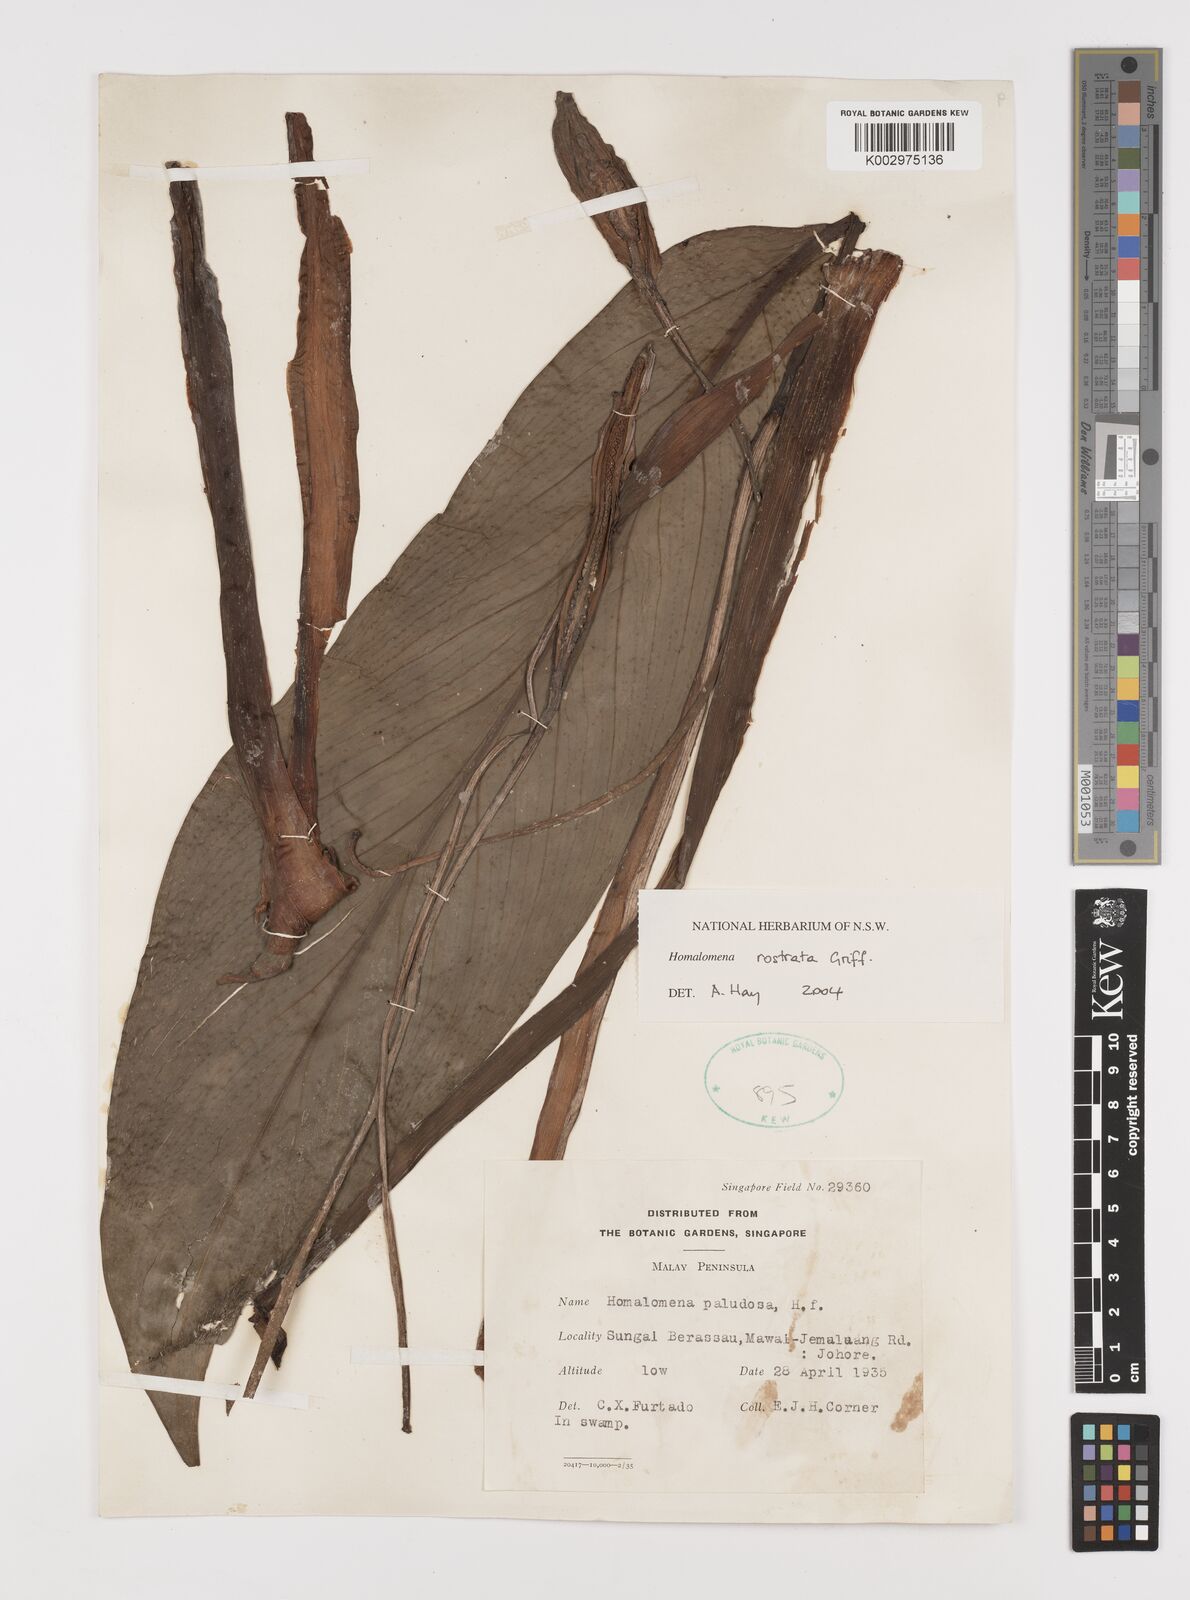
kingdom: Plantae
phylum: Tracheophyta
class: Liliopsida
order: Alismatales
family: Araceae
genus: Homalomena
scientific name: Homalomena rostrata
